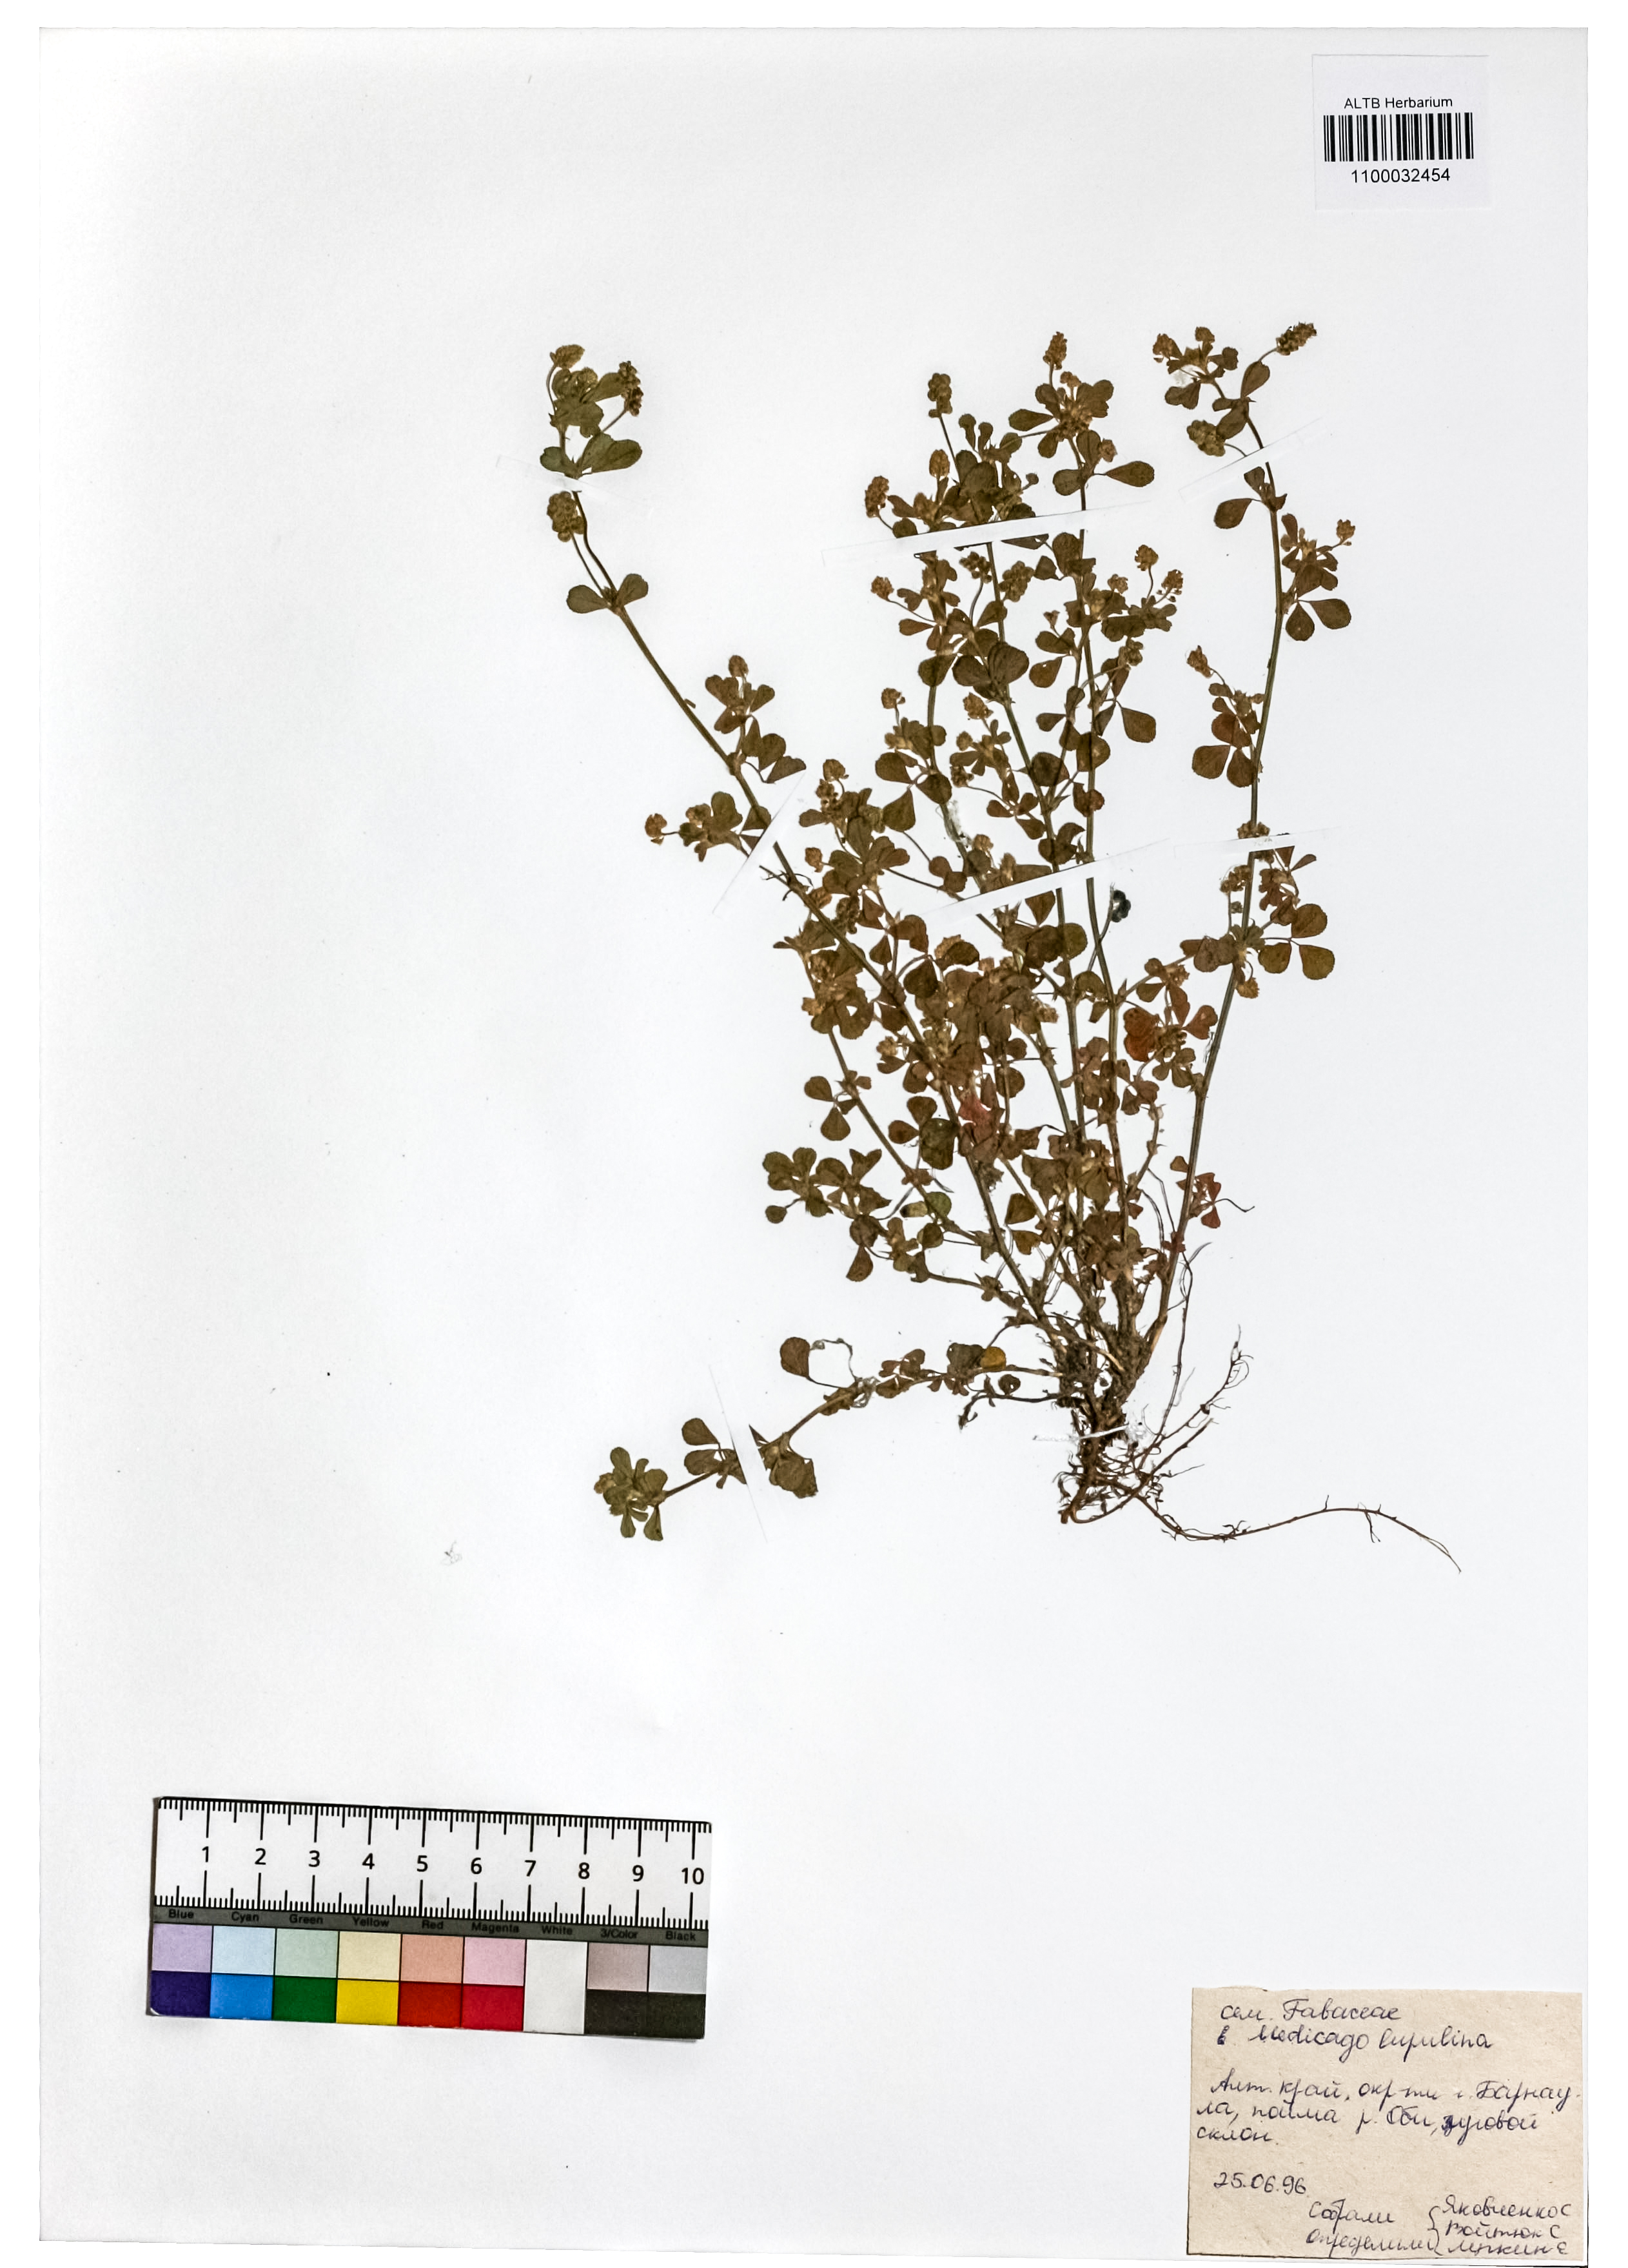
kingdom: Plantae
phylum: Tracheophyta
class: Magnoliopsida
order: Fabales
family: Fabaceae
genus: Medicago
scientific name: Medicago lupulina
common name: Black medick
